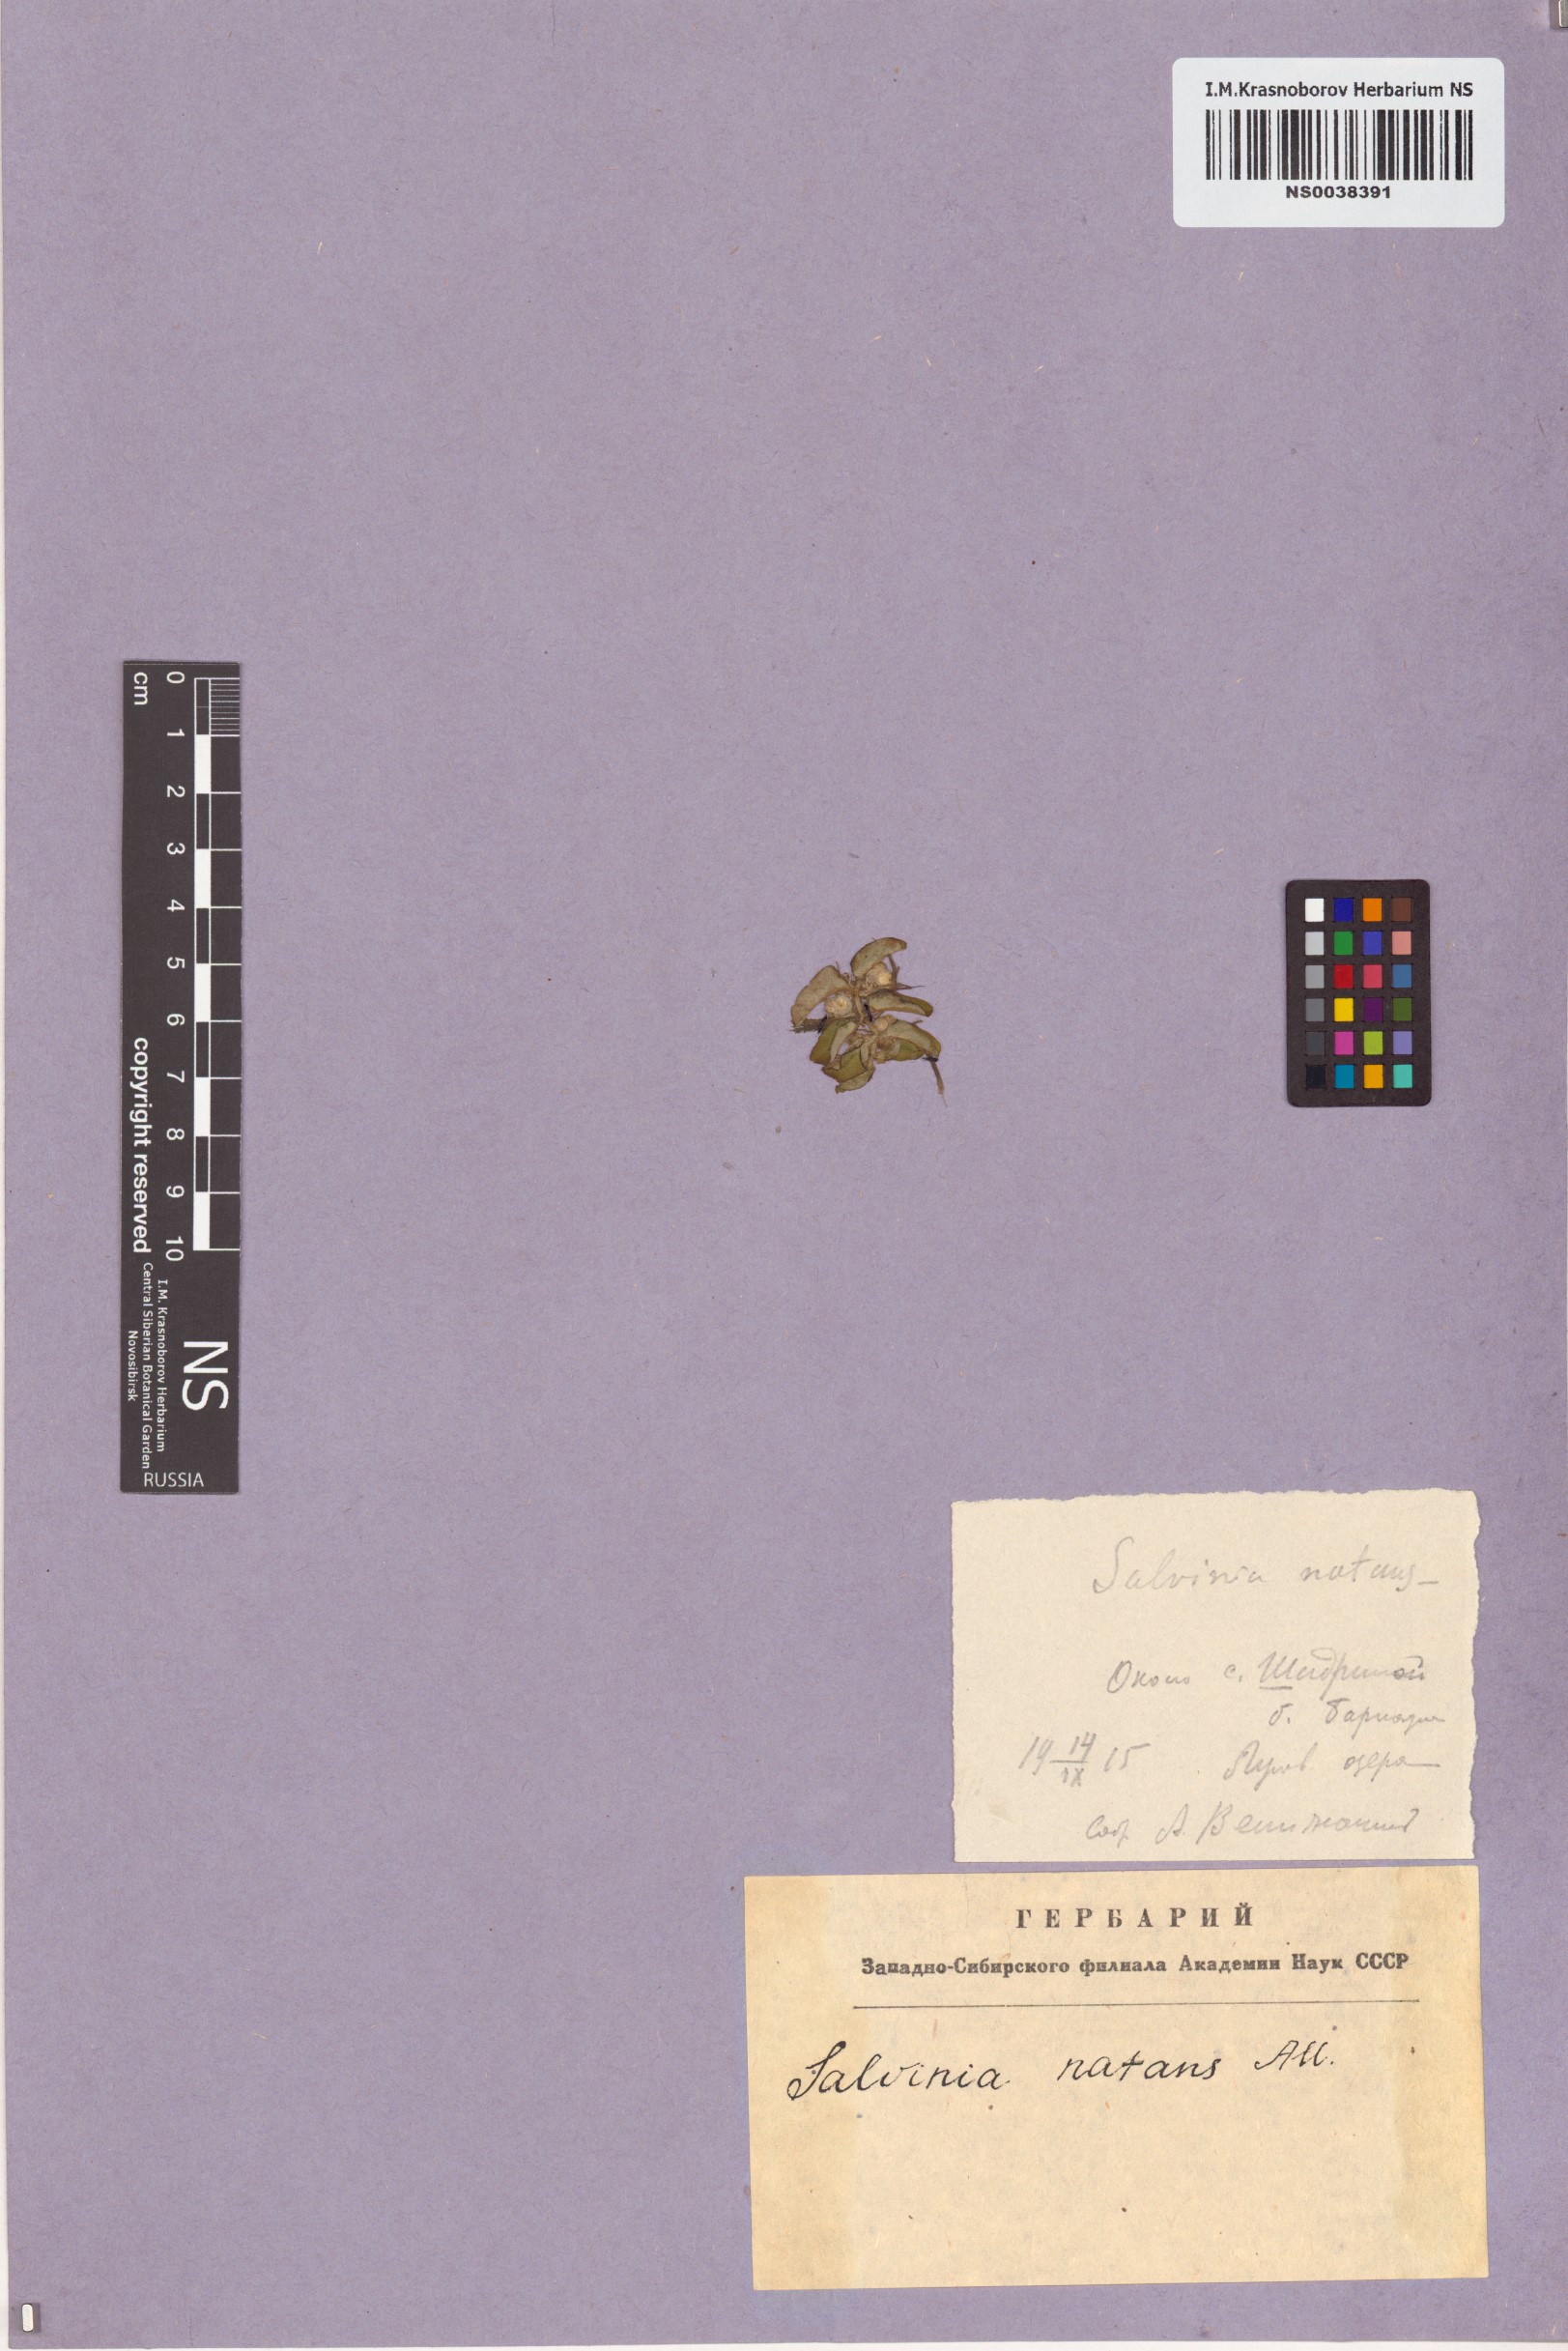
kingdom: Plantae
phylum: Tracheophyta
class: Polypodiopsida
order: Salviniales
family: Salviniaceae
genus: Salvinia
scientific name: Salvinia natans
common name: Floating fern
